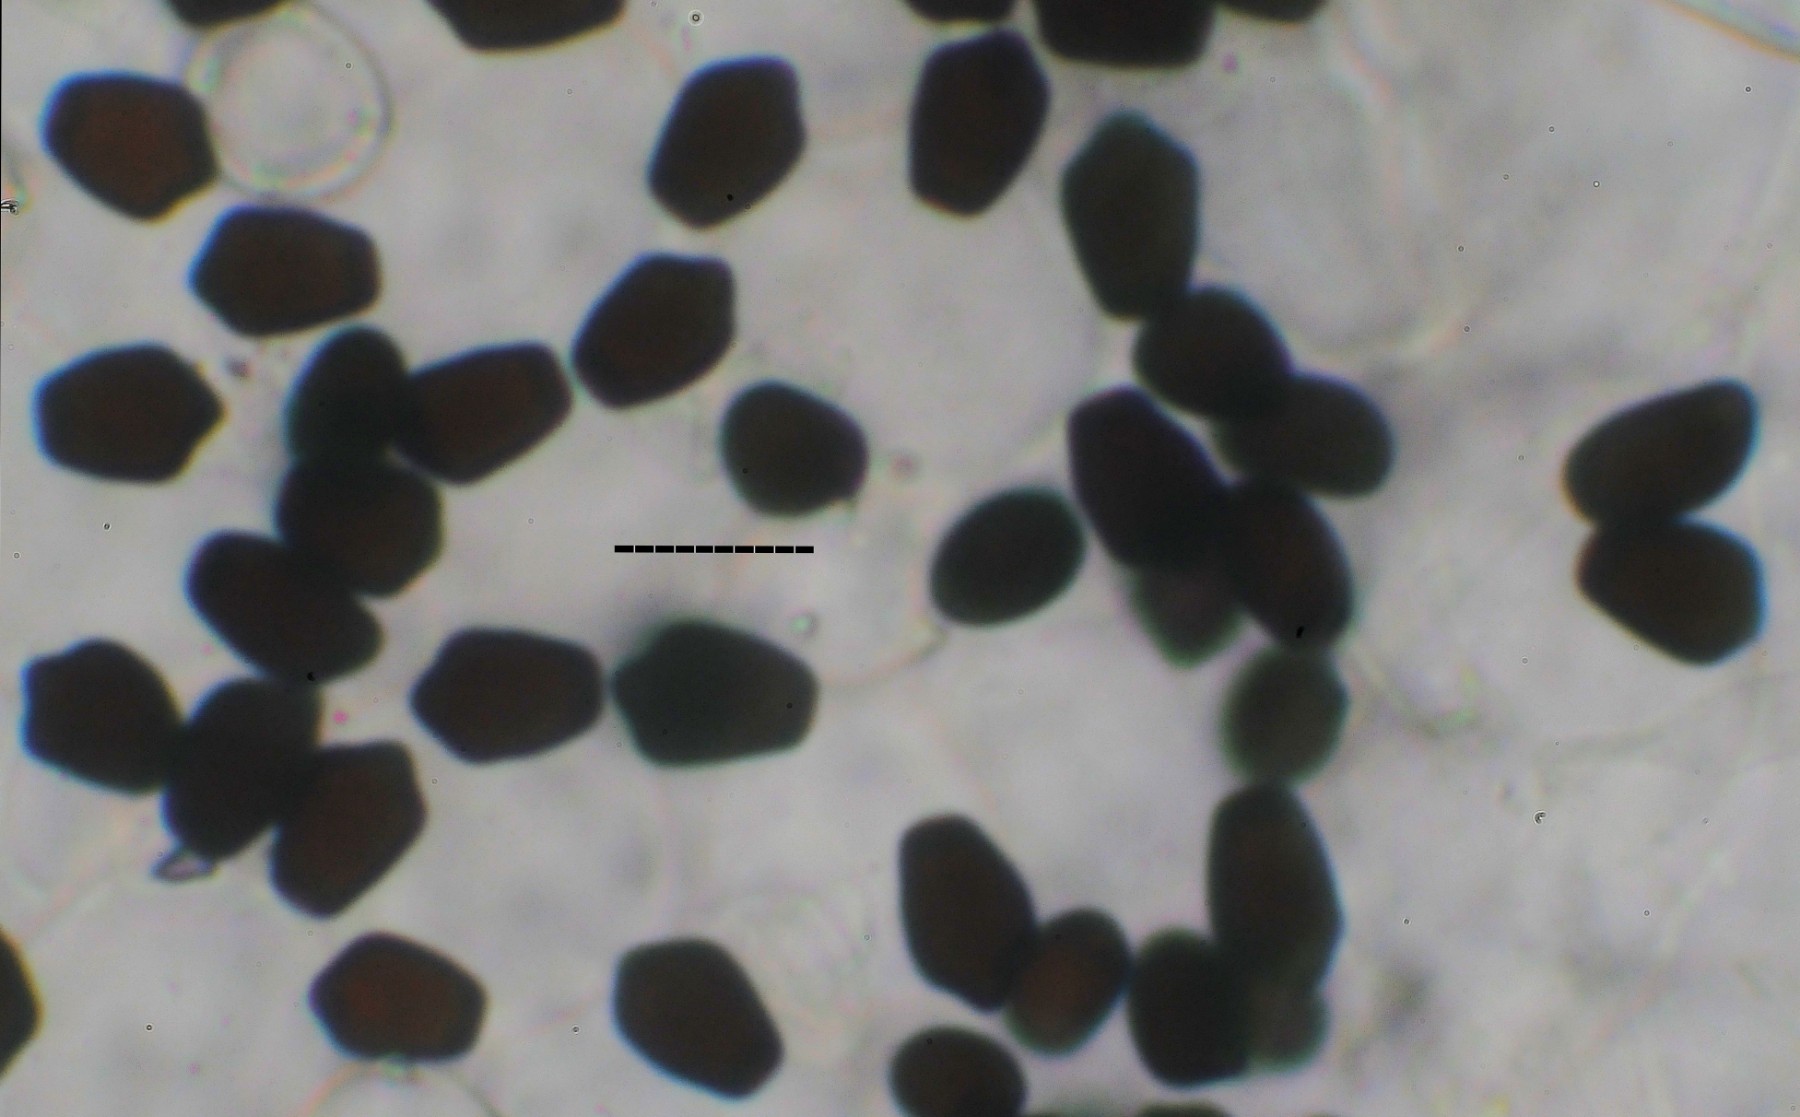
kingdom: Fungi
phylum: Basidiomycota
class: Agaricomycetes
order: Agaricales
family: Psathyrellaceae
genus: Tulosesus
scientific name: Tulosesus angulatus
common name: kul-blækhat
